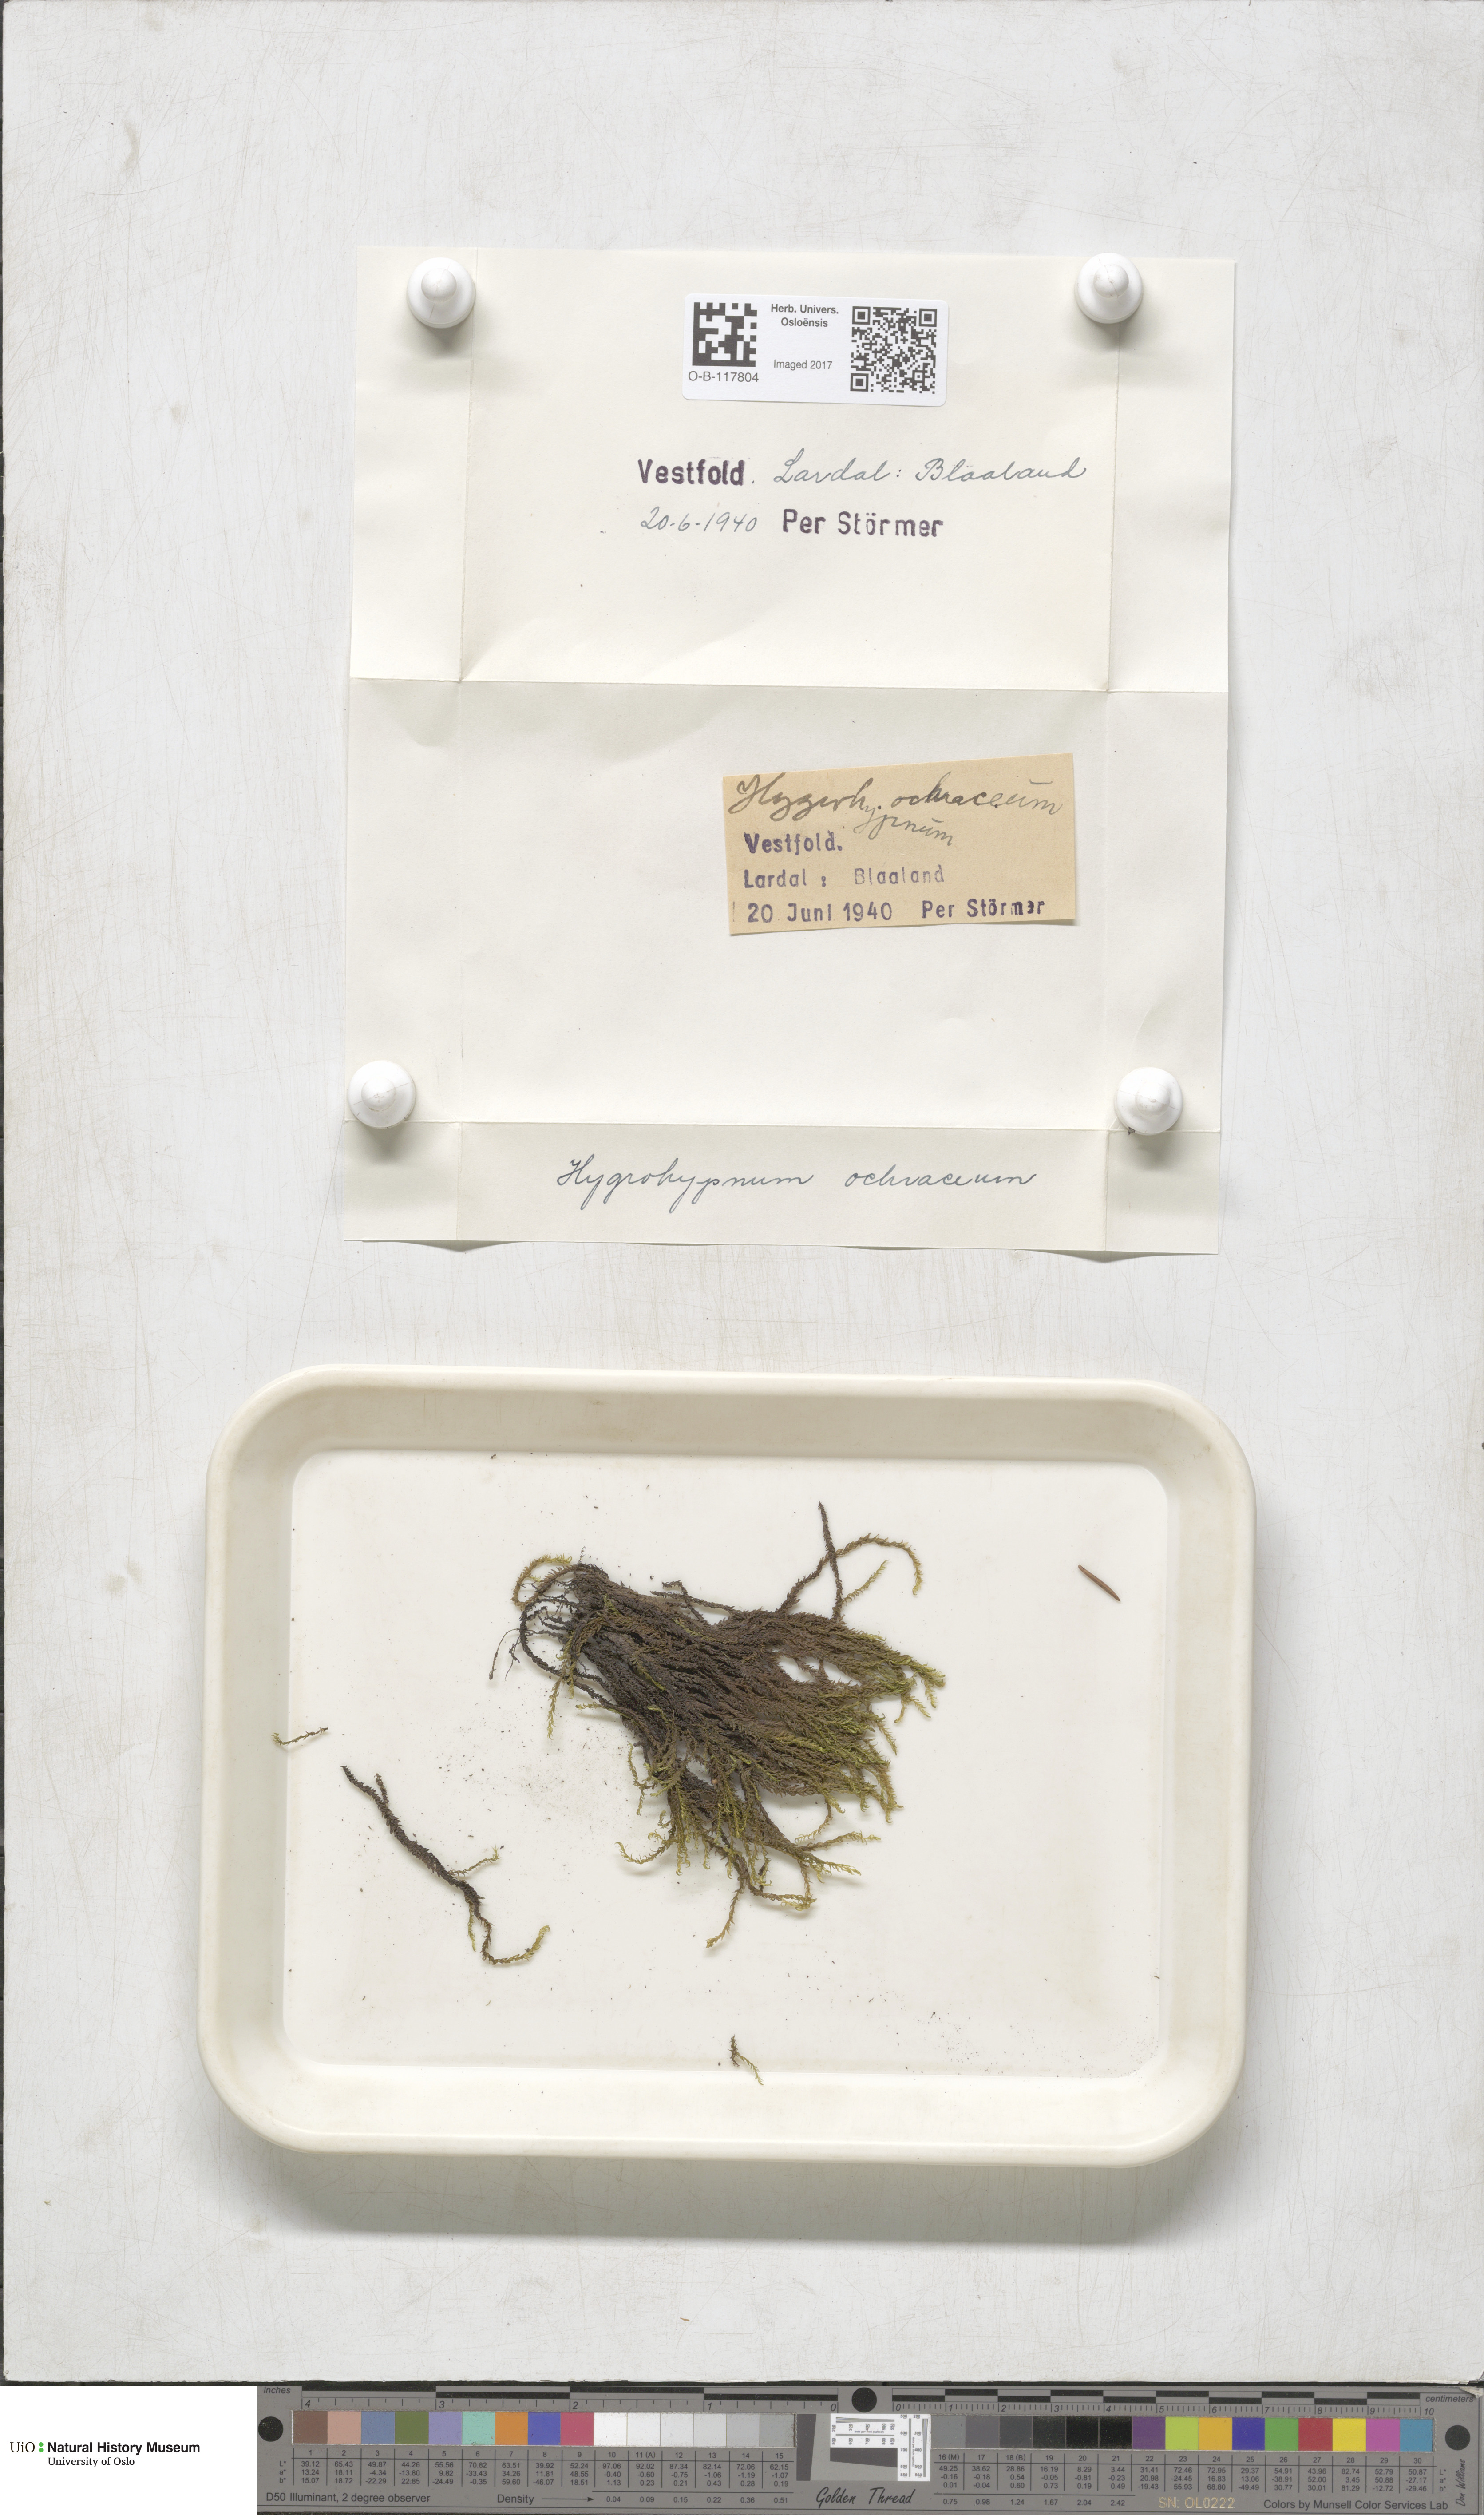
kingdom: Plantae
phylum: Bryophyta
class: Bryopsida
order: Hypnales
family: Scorpidiaceae
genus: Hygrohypnella
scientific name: Hygrohypnella ochracea
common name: Hygrohypnum moss
